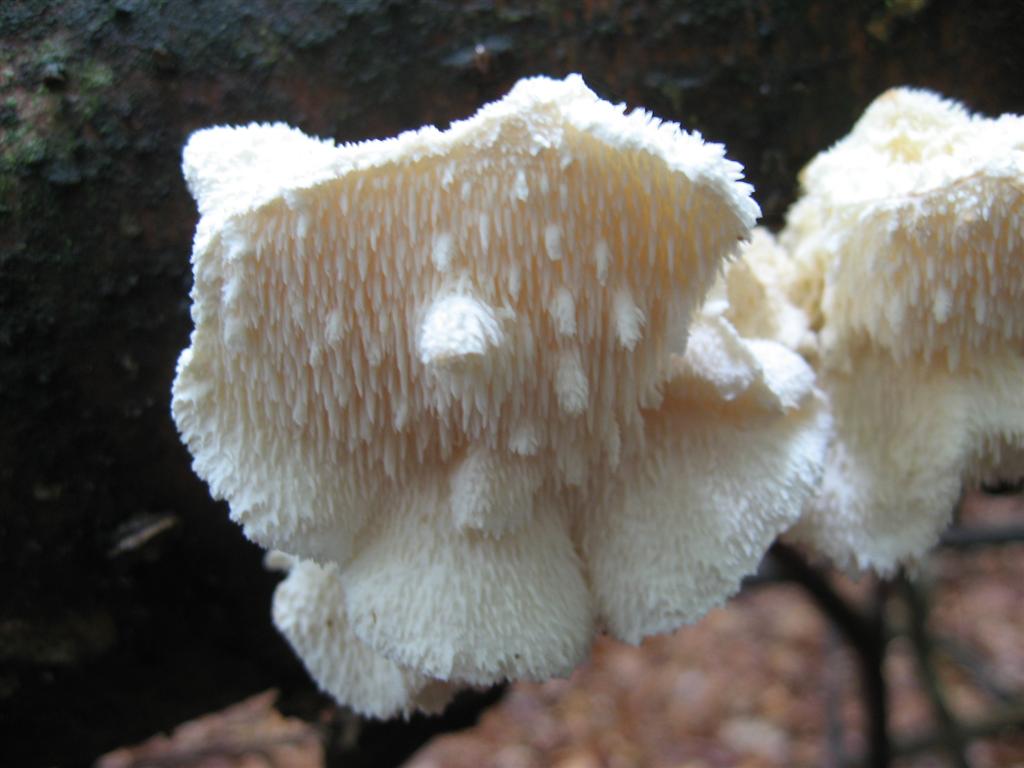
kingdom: Fungi
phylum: Basidiomycota
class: Agaricomycetes
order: Russulales
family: Hericiaceae
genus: Hericium
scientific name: Hericium cirrhatum
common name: børstepigsvamp
